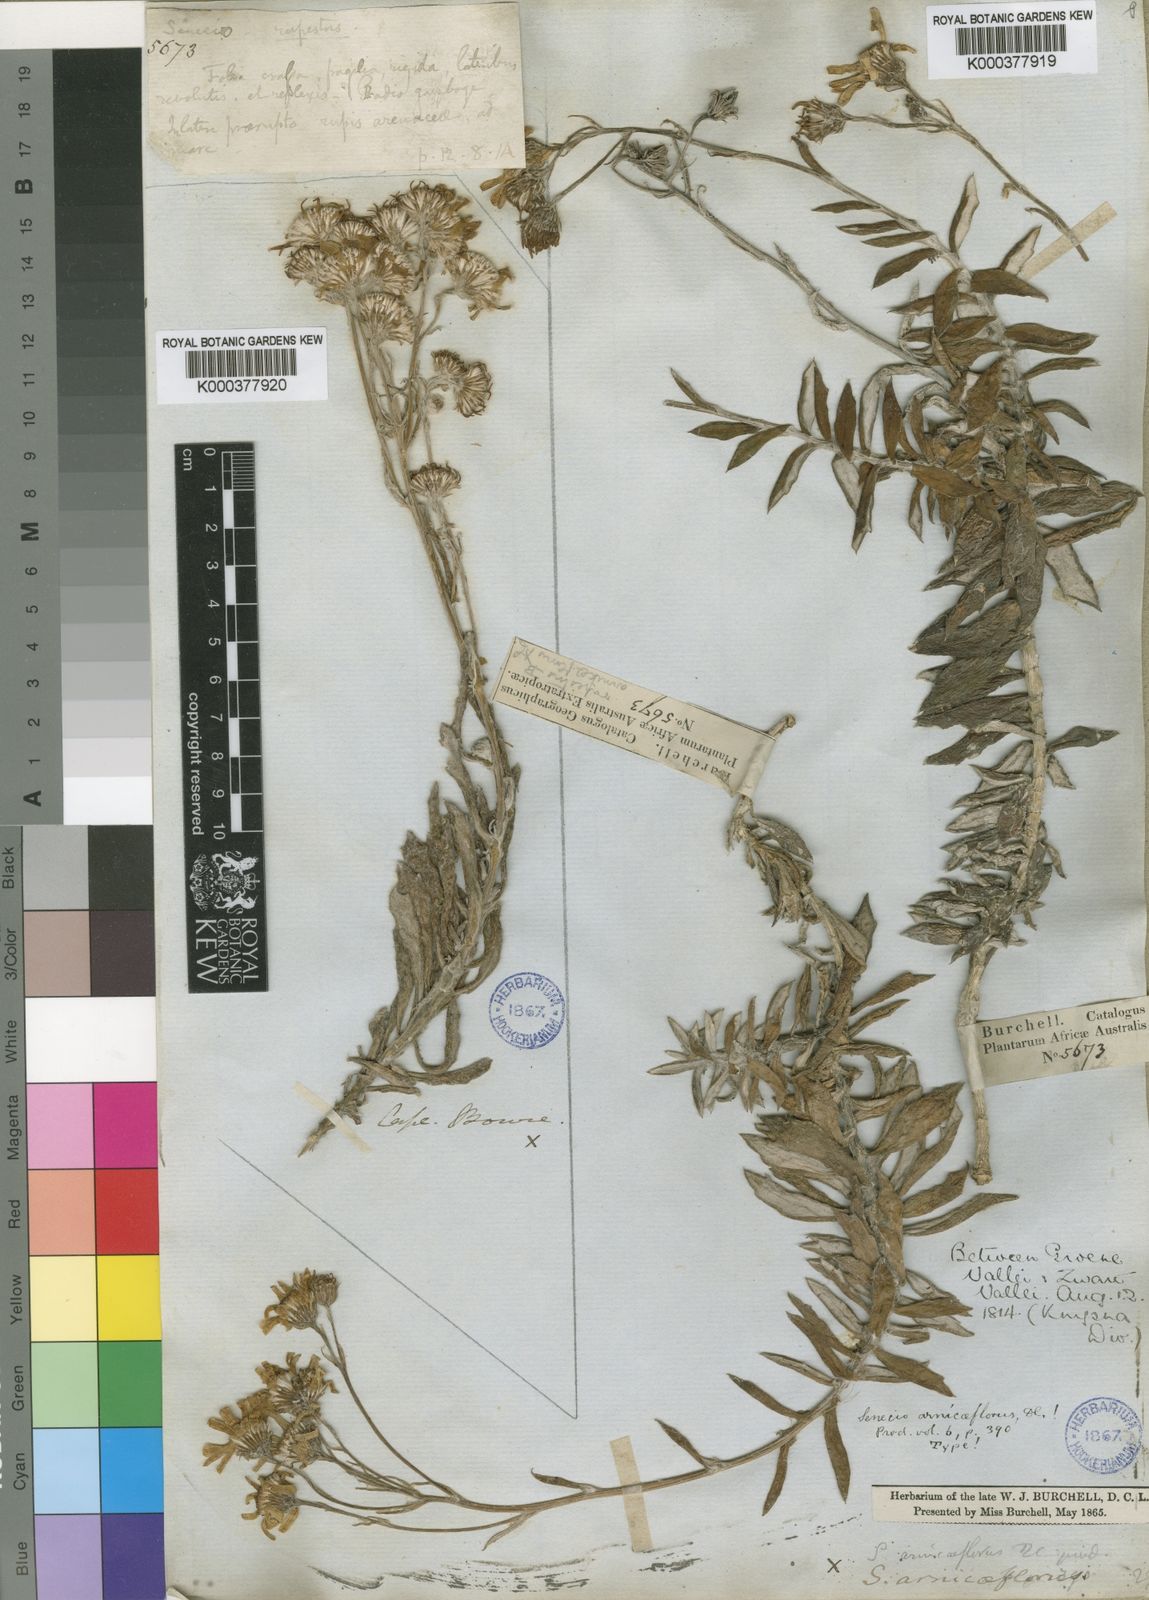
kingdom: Plantae
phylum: Tracheophyta
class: Magnoliopsida
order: Asterales
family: Asteraceae
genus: Senecio
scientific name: Senecio arniciflorus
